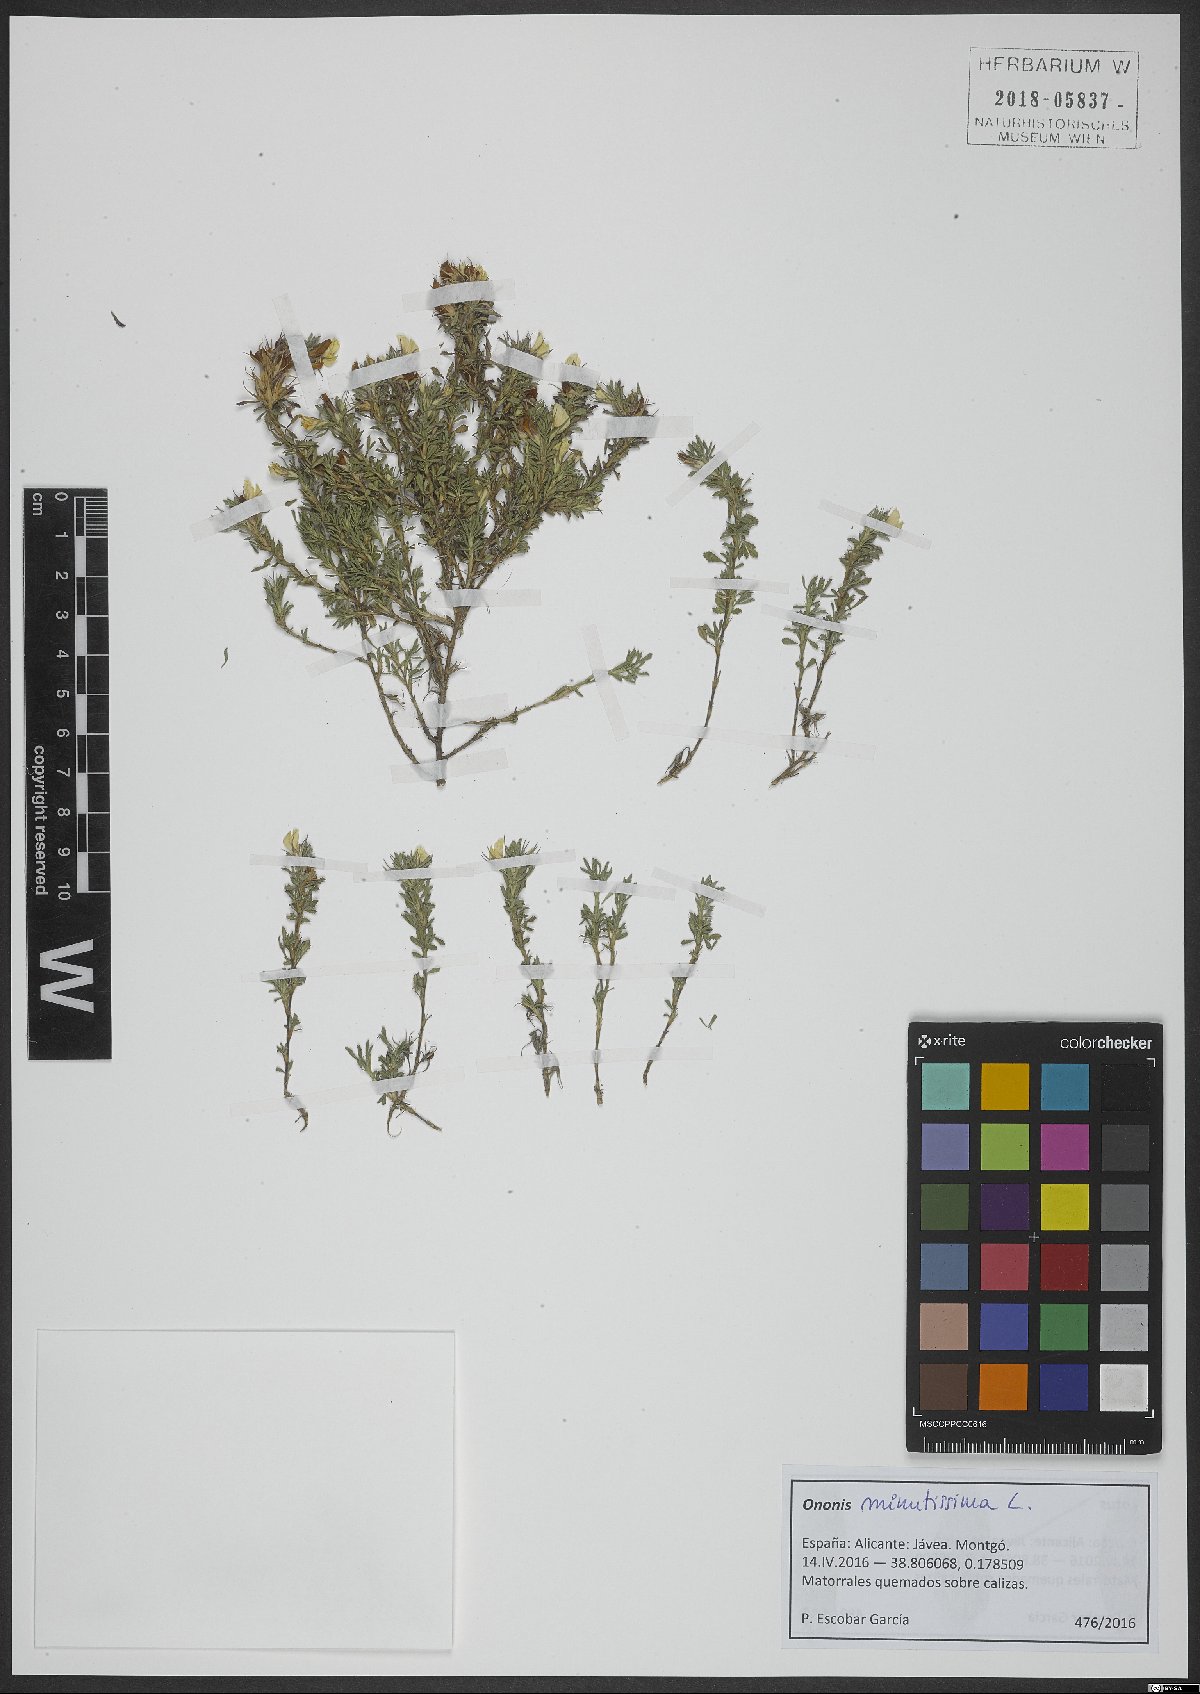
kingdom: Plantae
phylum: Tracheophyta
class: Magnoliopsida
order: Fabales
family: Fabaceae
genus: Ononis
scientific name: Ononis minutissima
